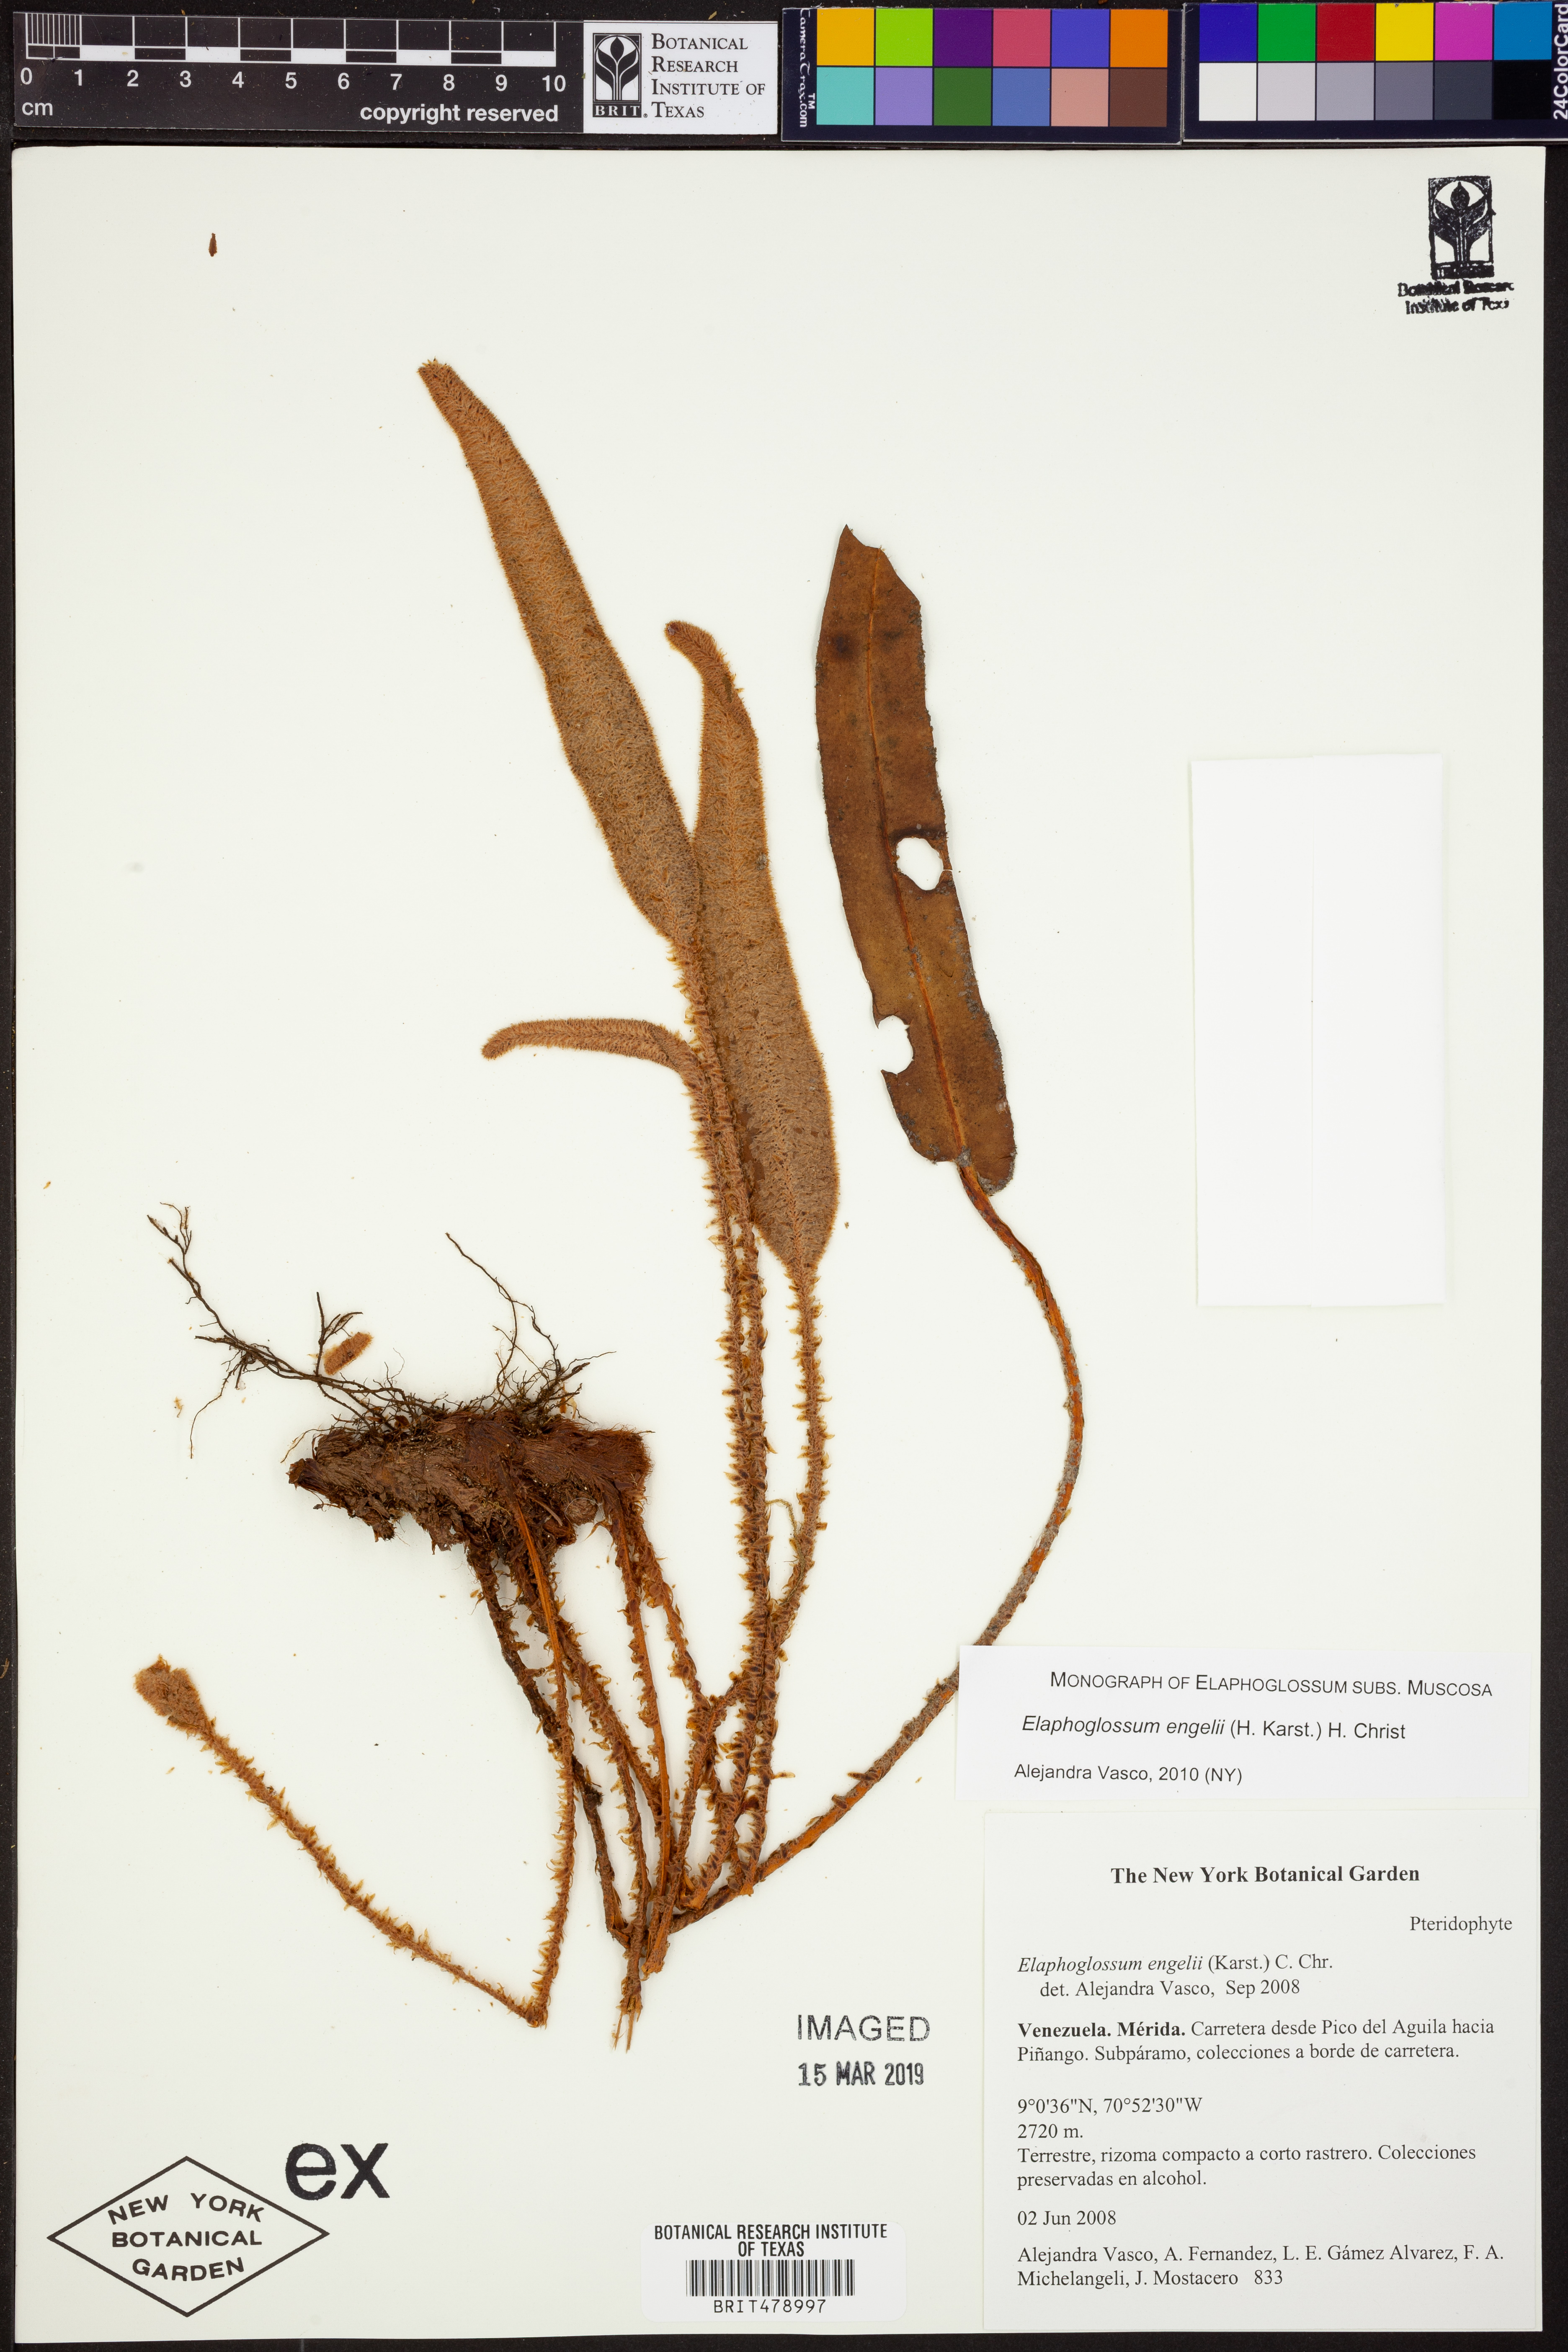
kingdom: Plantae
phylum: Tracheophyta
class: Polypodiopsida
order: Polypodiales
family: Dryopteridaceae
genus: Elaphoglossum
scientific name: Elaphoglossum engelii
